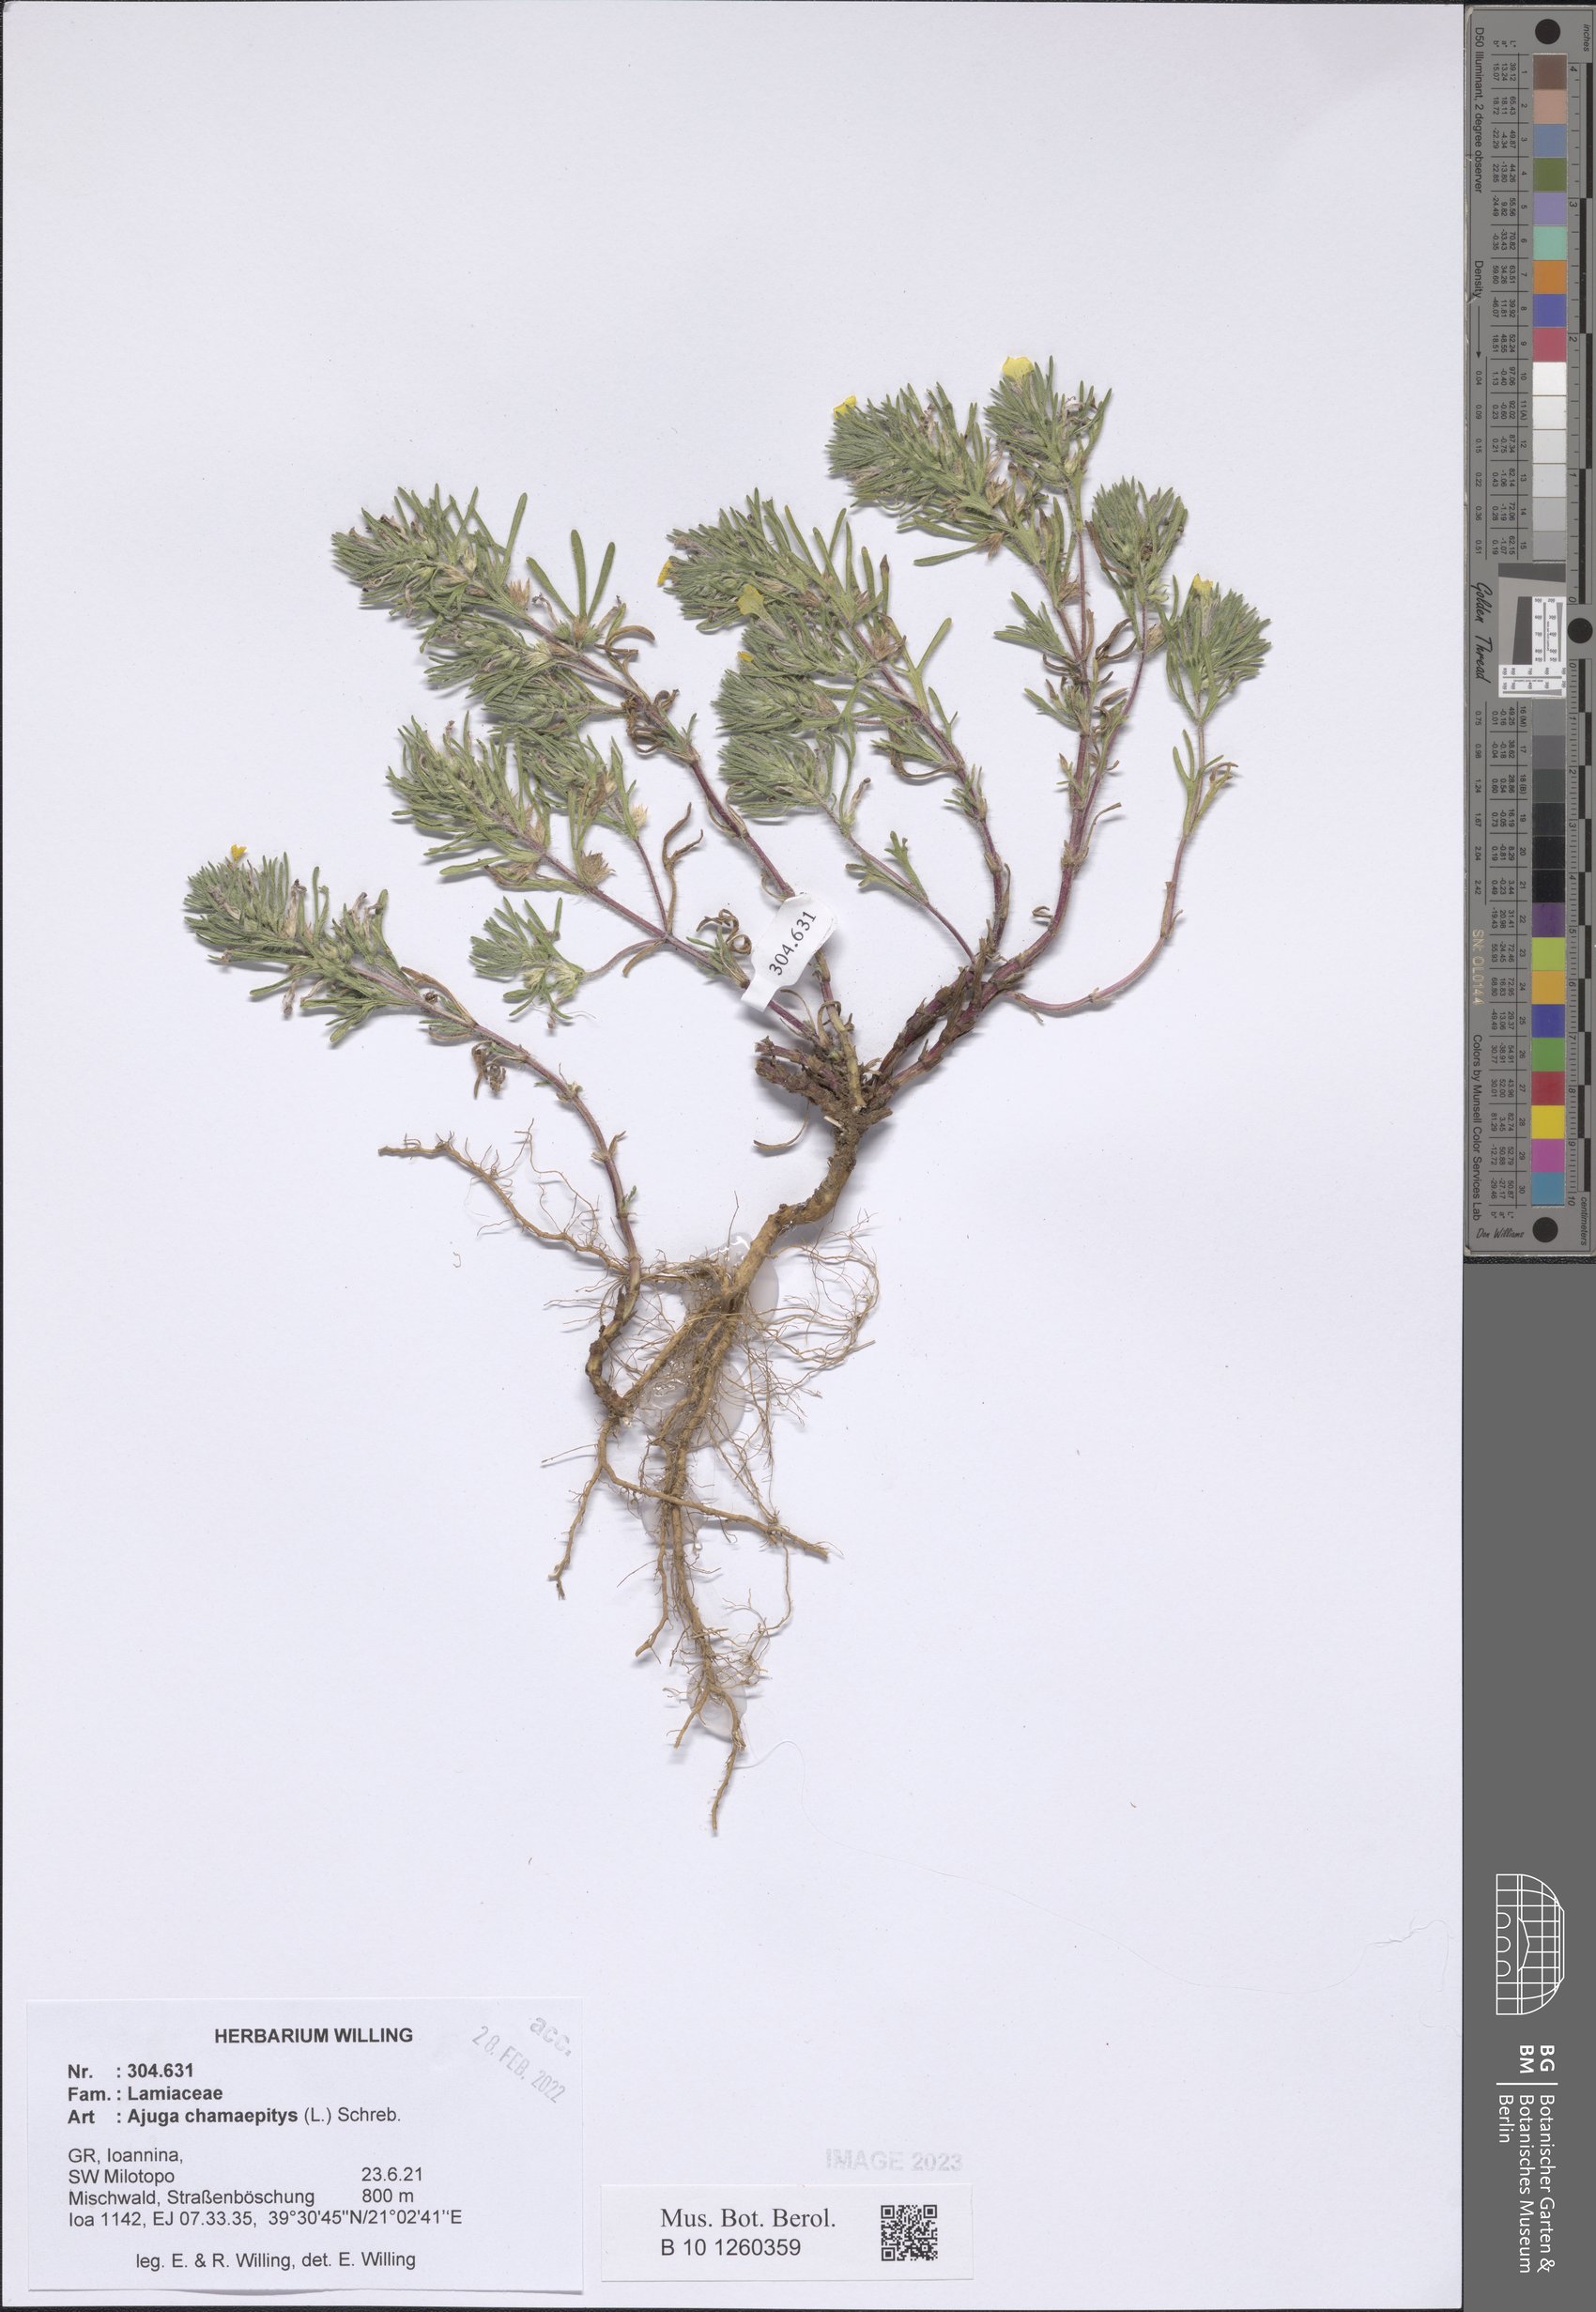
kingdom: Plantae
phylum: Tracheophyta
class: Magnoliopsida
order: Lamiales
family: Lamiaceae
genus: Ajuga
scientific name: Ajuga chamaepitys
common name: Ground-pine
